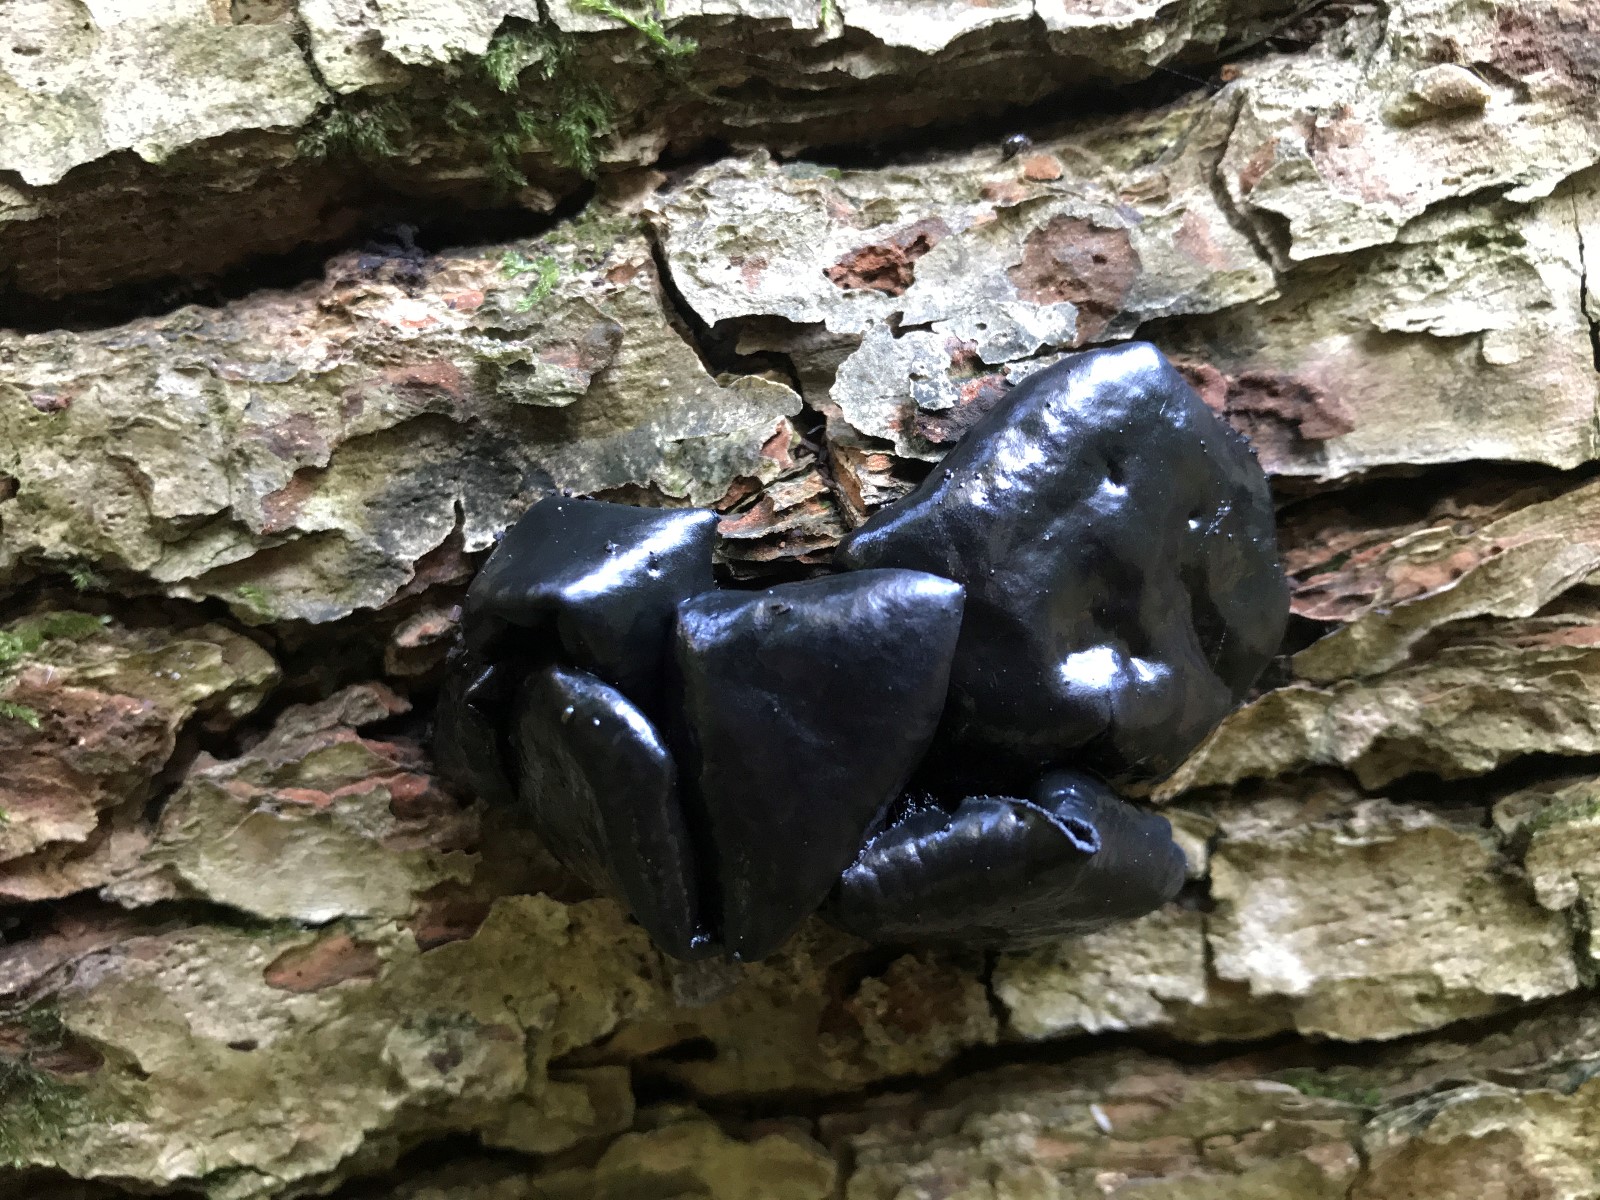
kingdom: Fungi
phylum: Basidiomycota
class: Agaricomycetes
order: Auriculariales
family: Auriculariaceae
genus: Exidia
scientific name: Exidia glandulosa
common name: ege-bævretop
